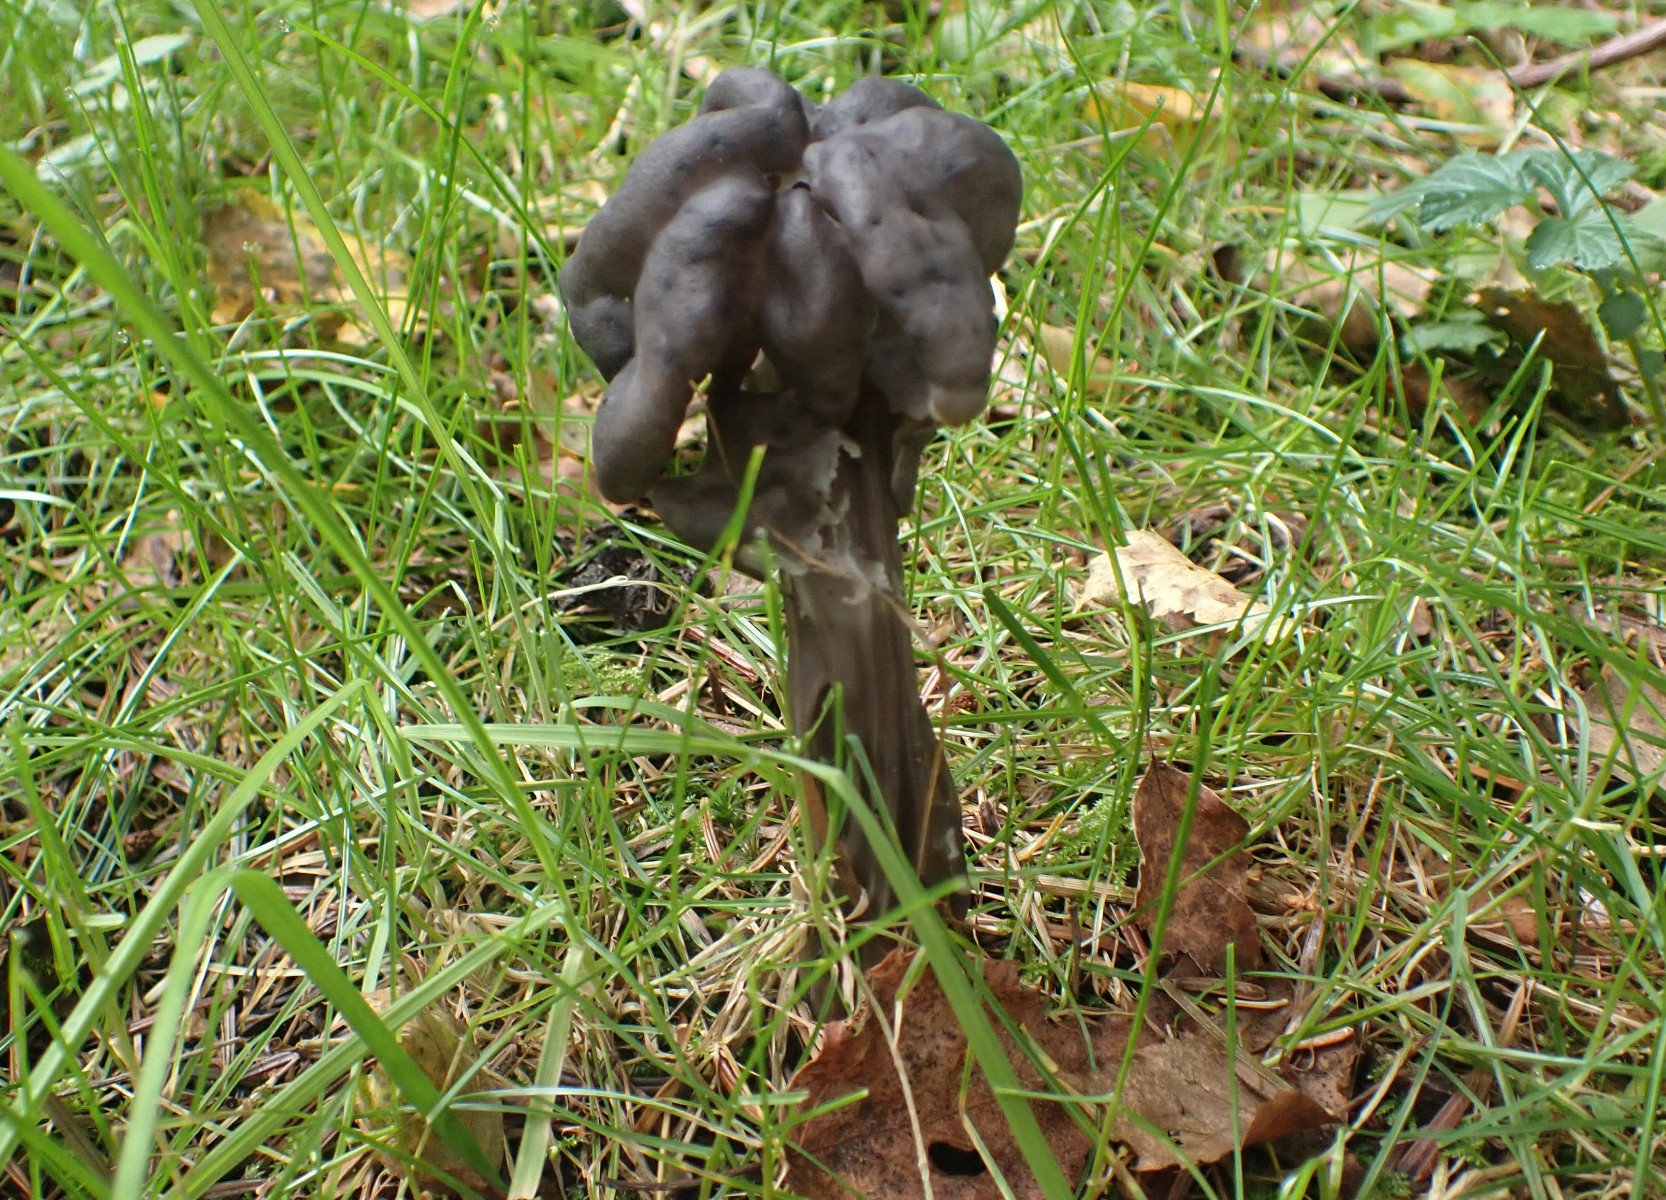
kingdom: Fungi
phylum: Ascomycota
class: Pezizomycetes
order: Pezizales
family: Helvellaceae
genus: Helvella
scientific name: Helvella lacunosa
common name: grubet foldhat
